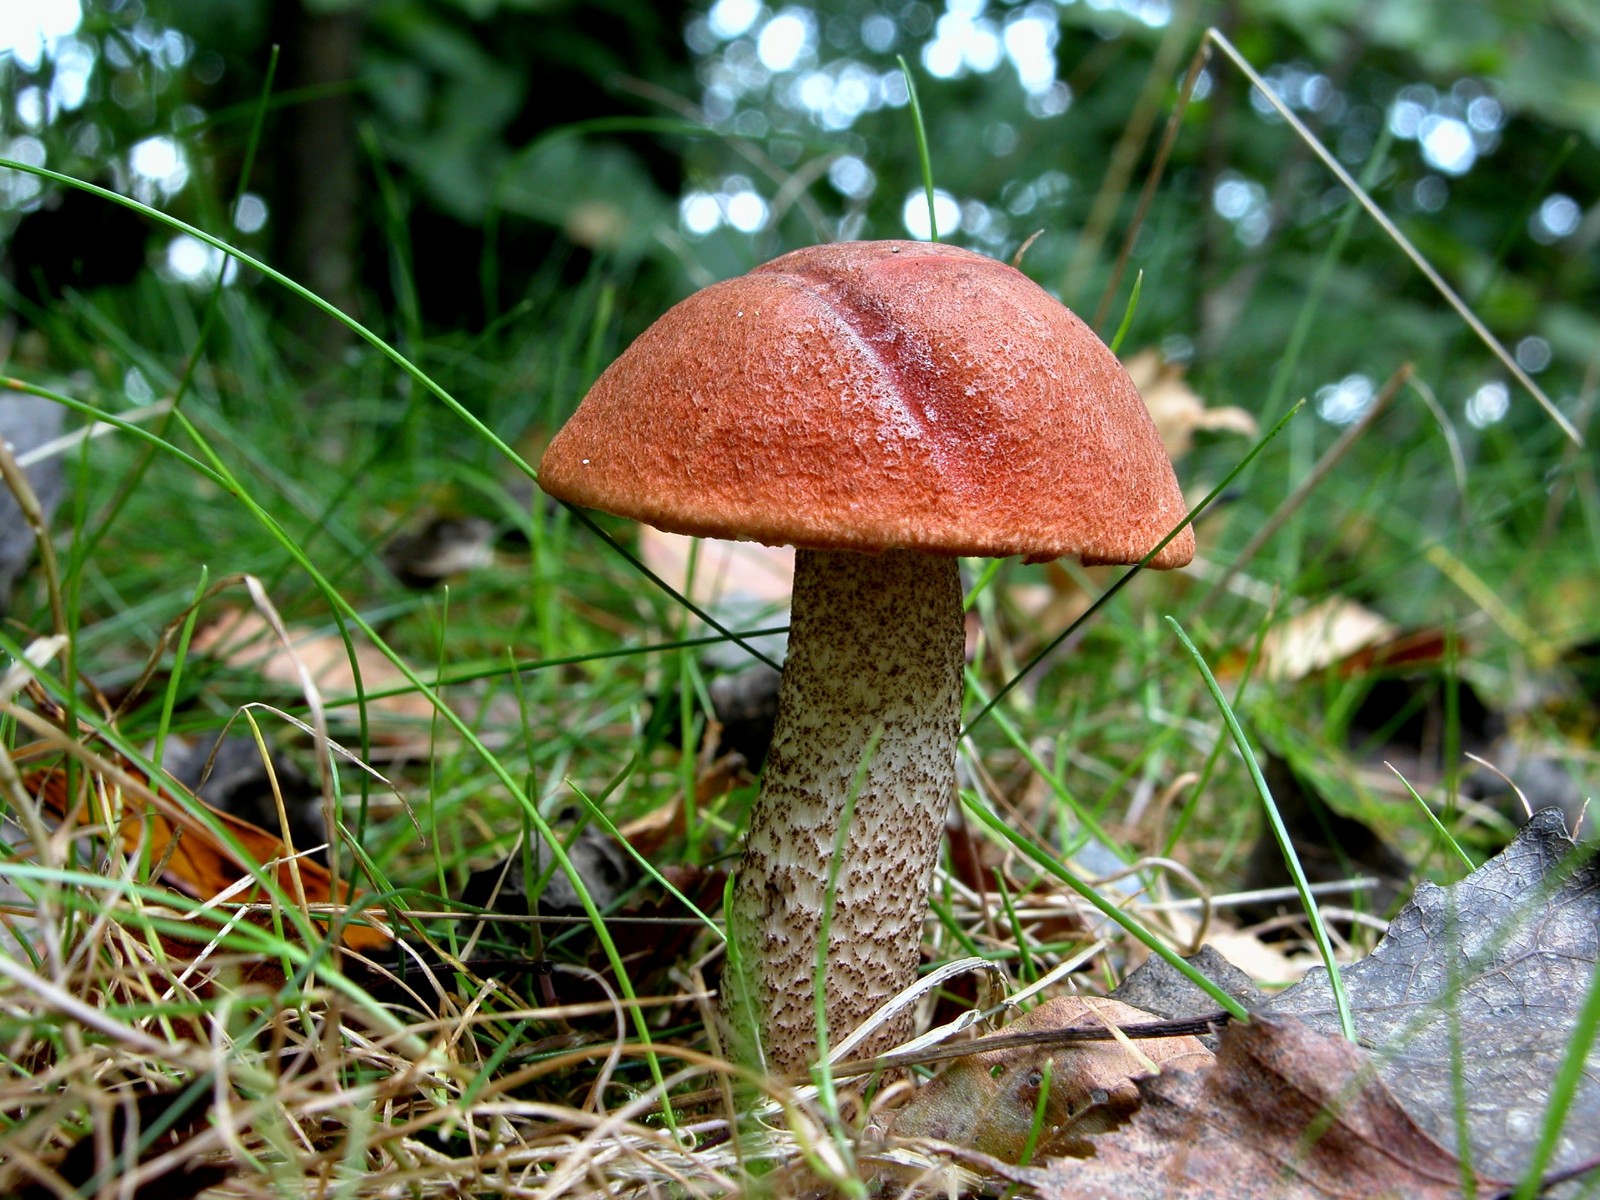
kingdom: Fungi
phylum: Basidiomycota
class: Agaricomycetes
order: Boletales
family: Boletaceae
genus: Leccinum
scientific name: Leccinum aurantiacum
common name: rustrød skælrørhat
